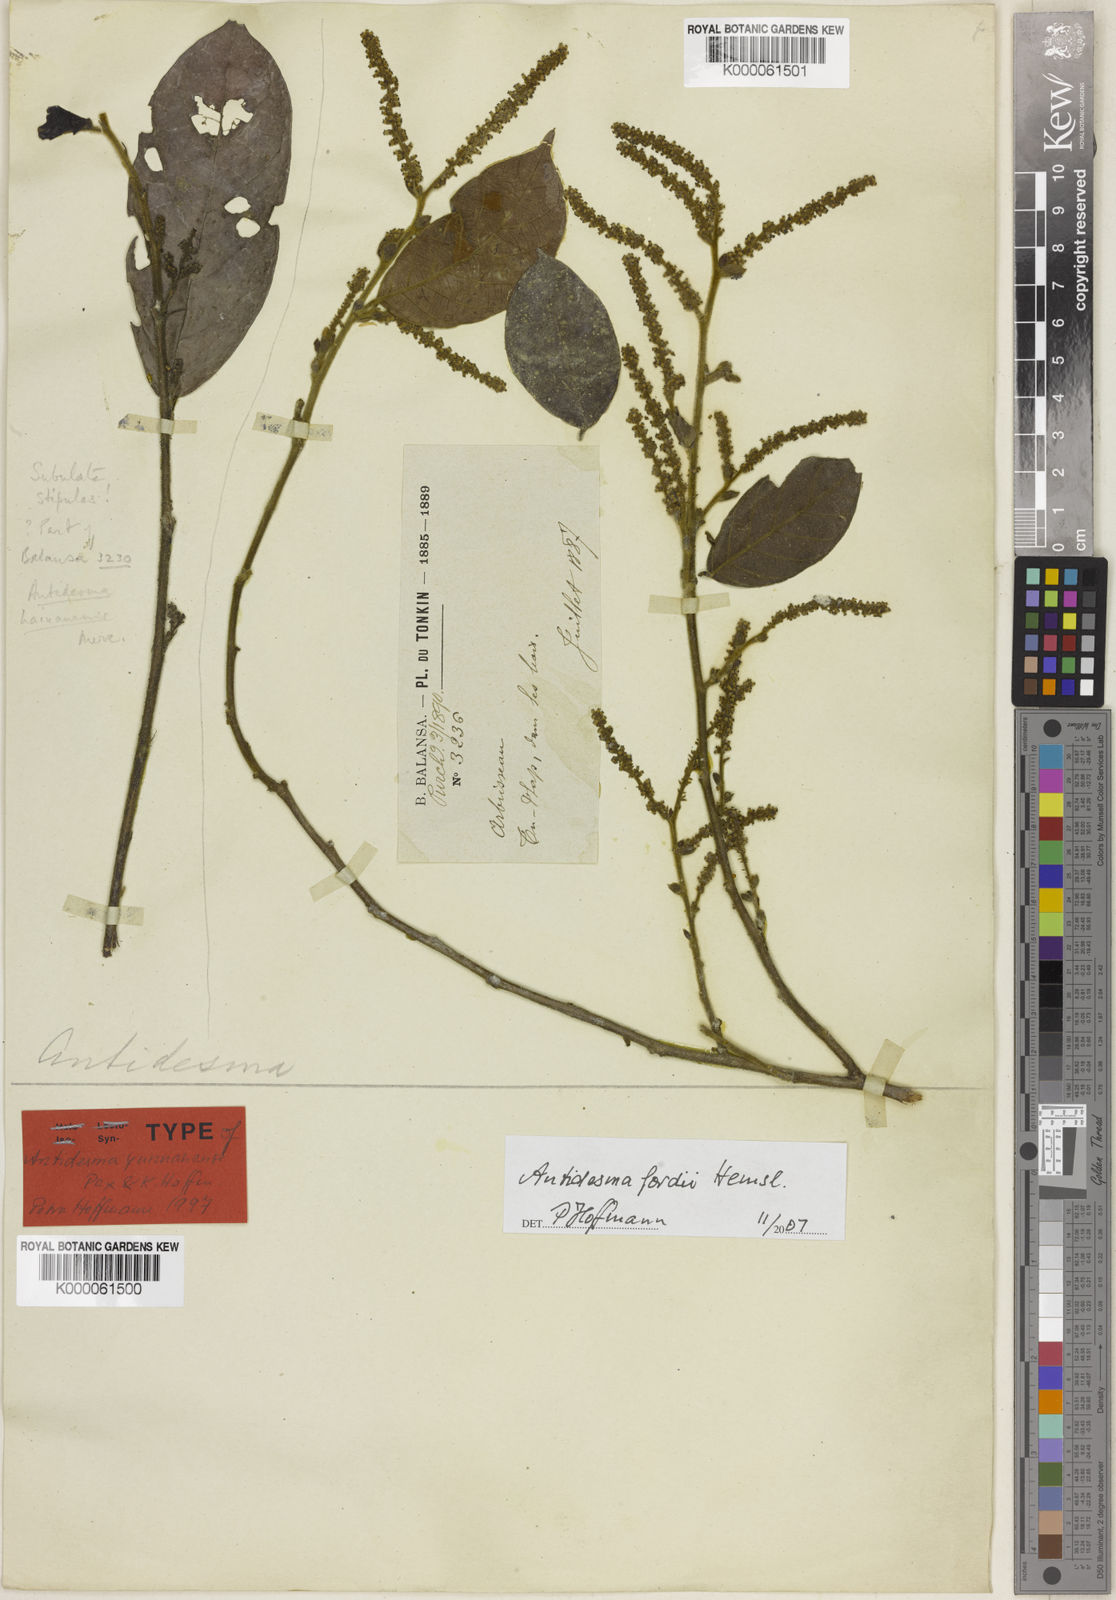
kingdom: Plantae
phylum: Tracheophyta
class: Magnoliopsida
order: Malpighiales
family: Phyllanthaceae
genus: Antidesma
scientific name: Antidesma fordii
